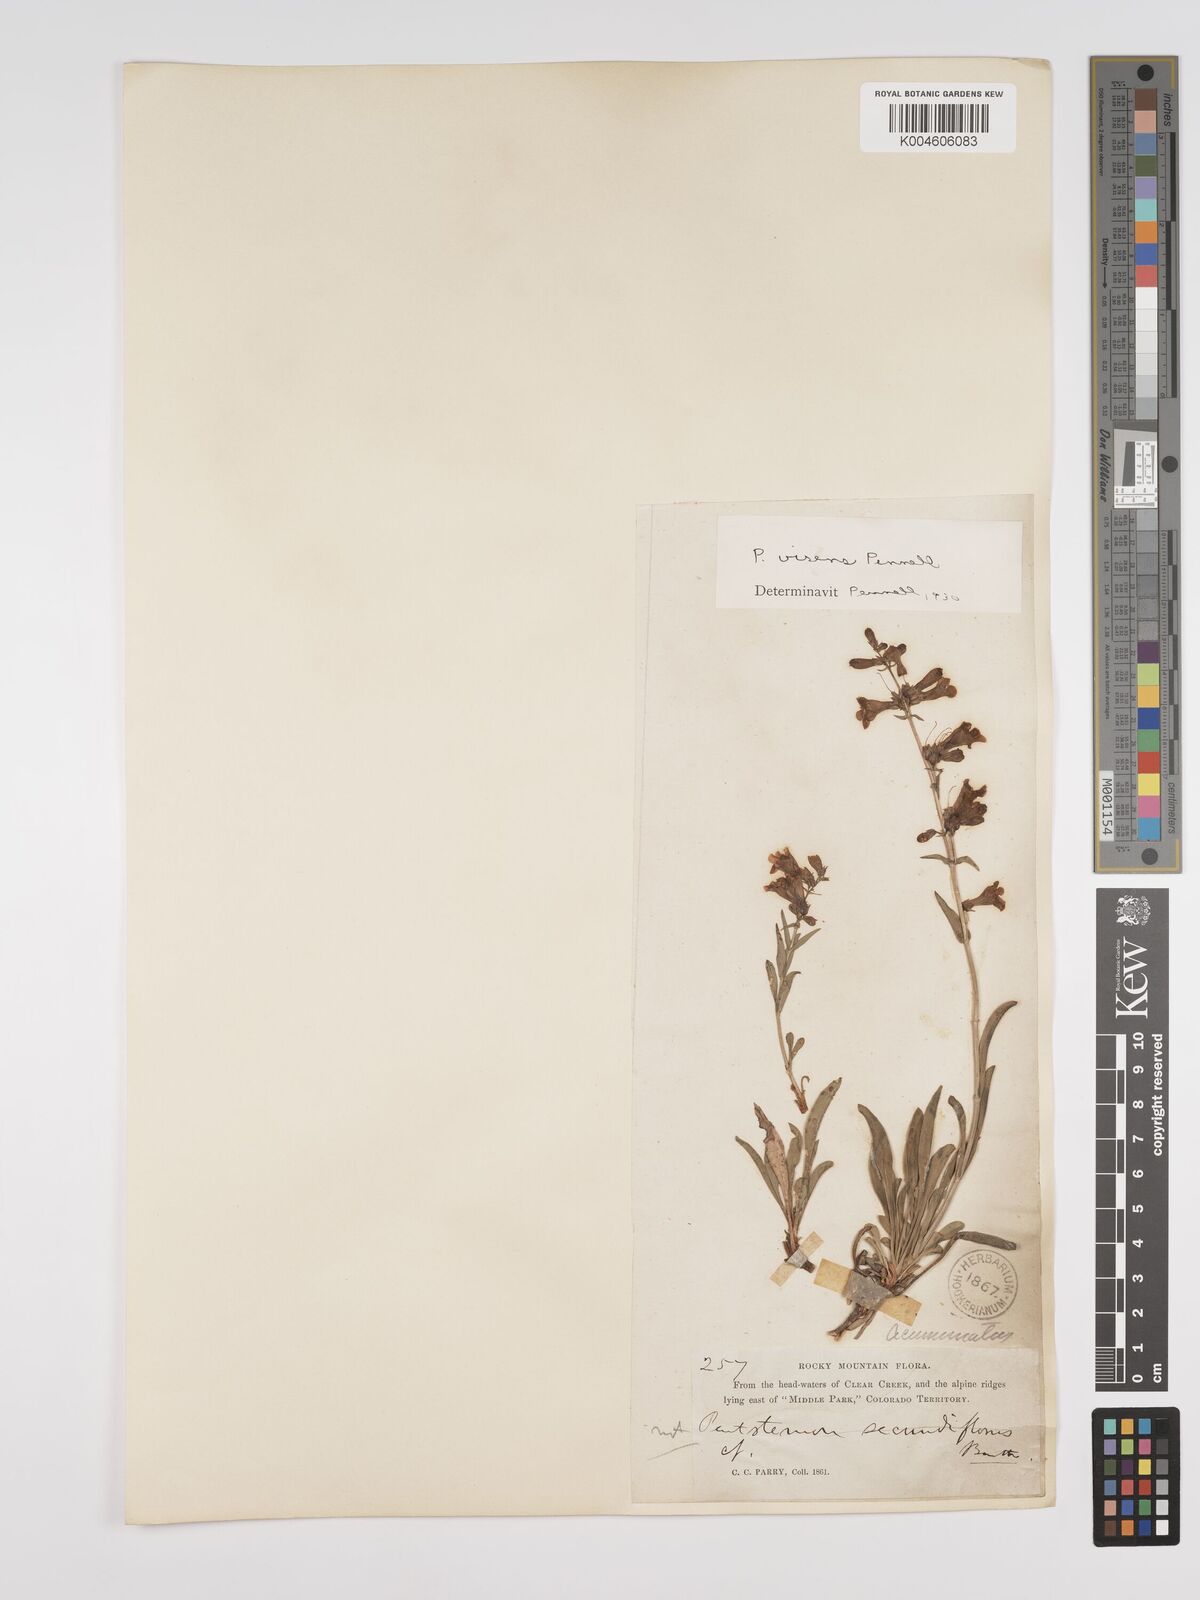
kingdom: Plantae
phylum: Tracheophyta
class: Magnoliopsida
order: Lamiales
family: Plantaginaceae
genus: Penstemon
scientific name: Penstemon virens
